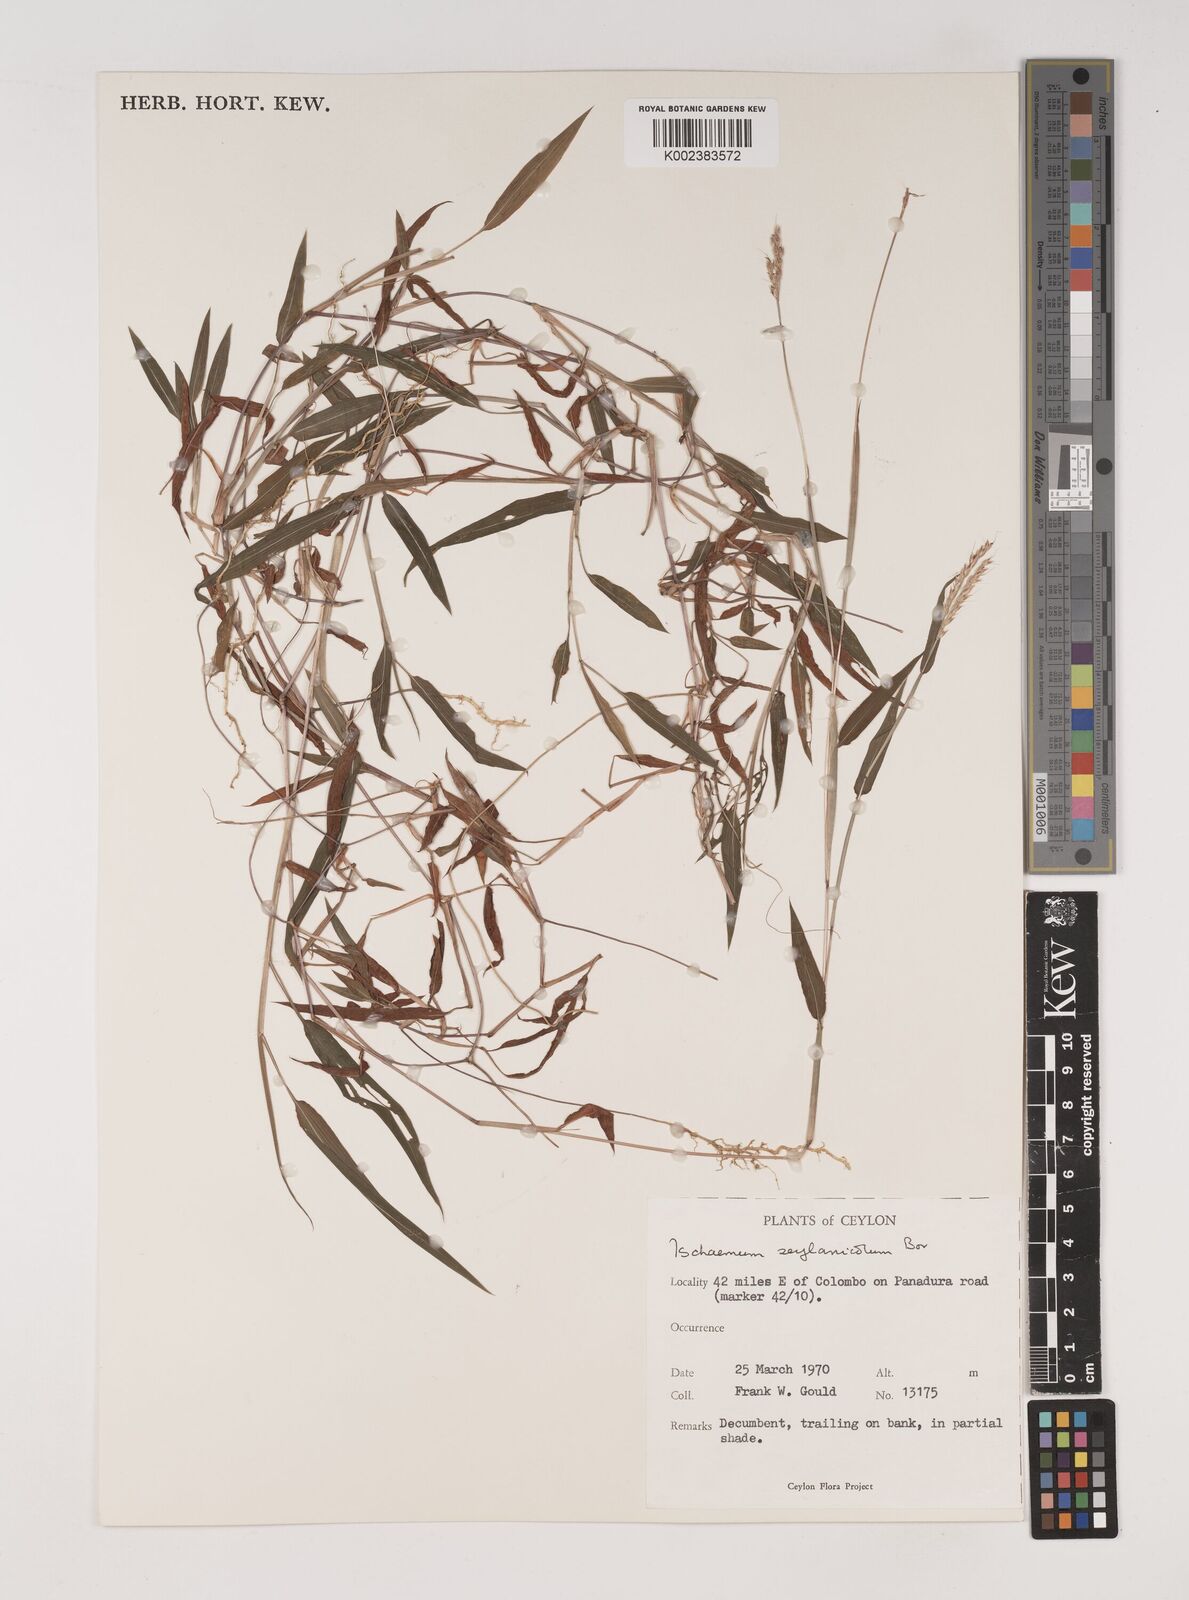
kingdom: Plantae
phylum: Tracheophyta
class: Liliopsida
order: Poales
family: Poaceae
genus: Ischaemum
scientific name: Ischaemum zeylanicola
